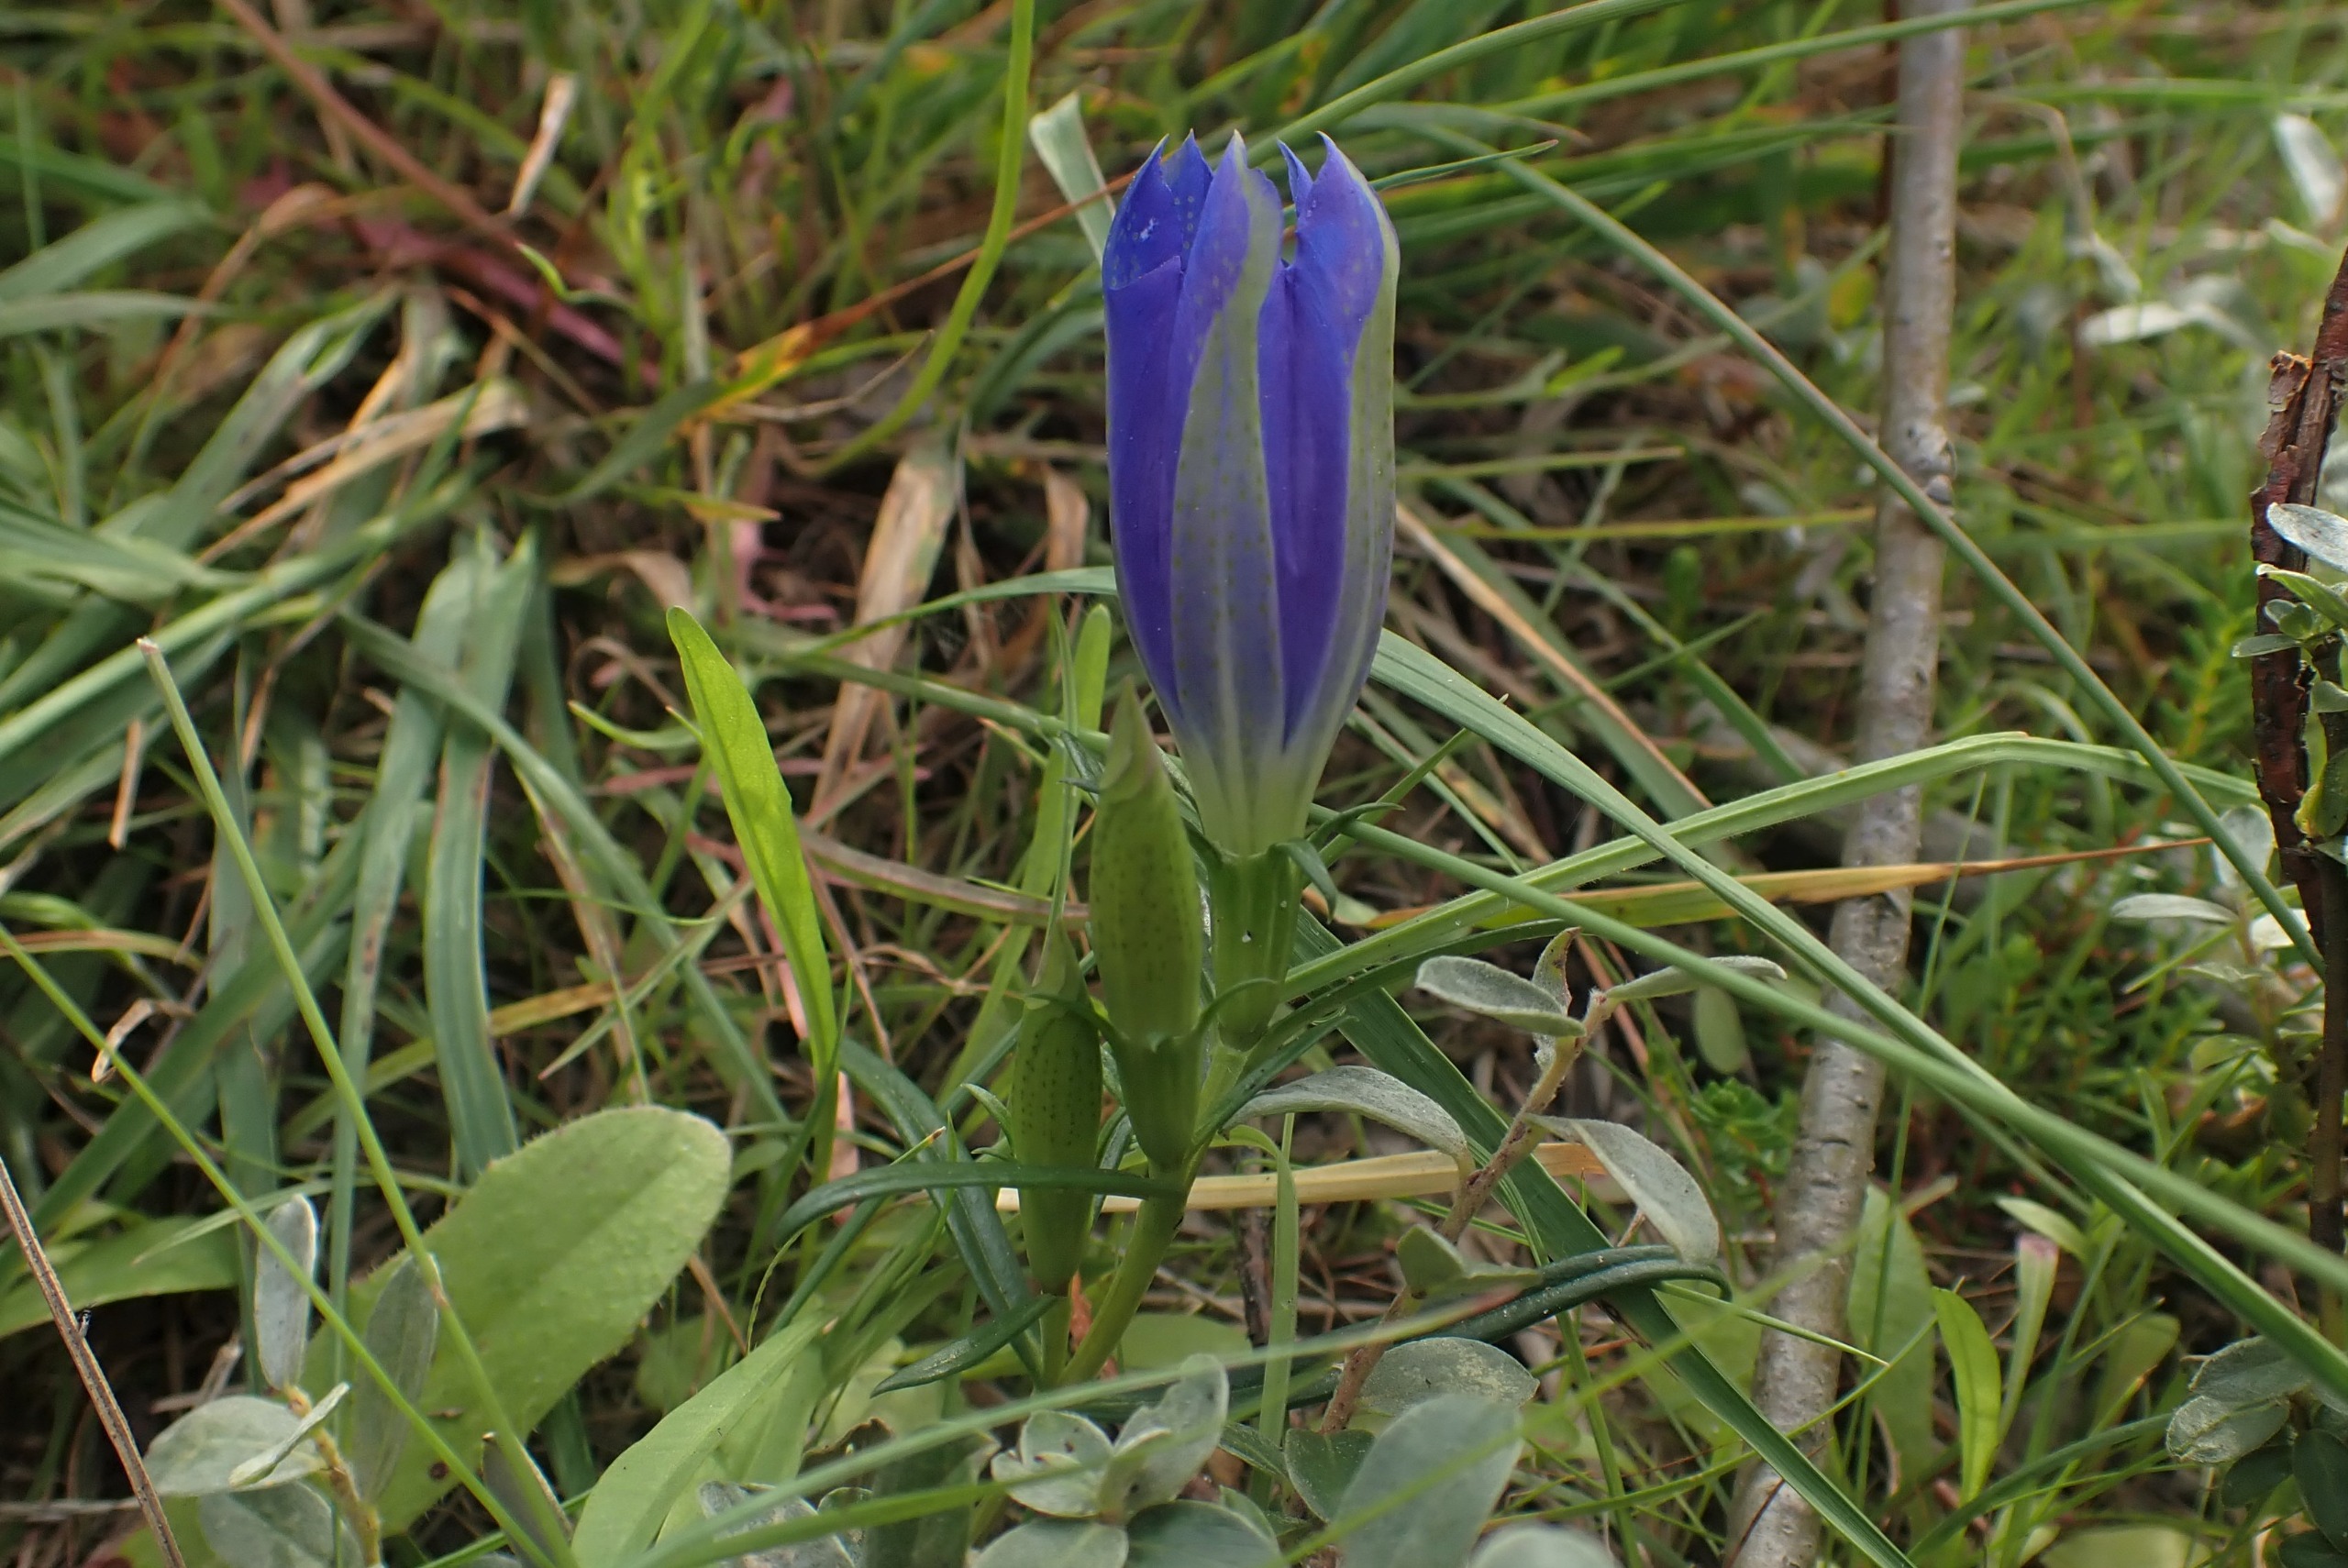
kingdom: Plantae
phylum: Tracheophyta
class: Magnoliopsida
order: Gentianales
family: Gentianaceae
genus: Gentiana
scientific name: Gentiana pneumonanthe
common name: Klokke-ensian
